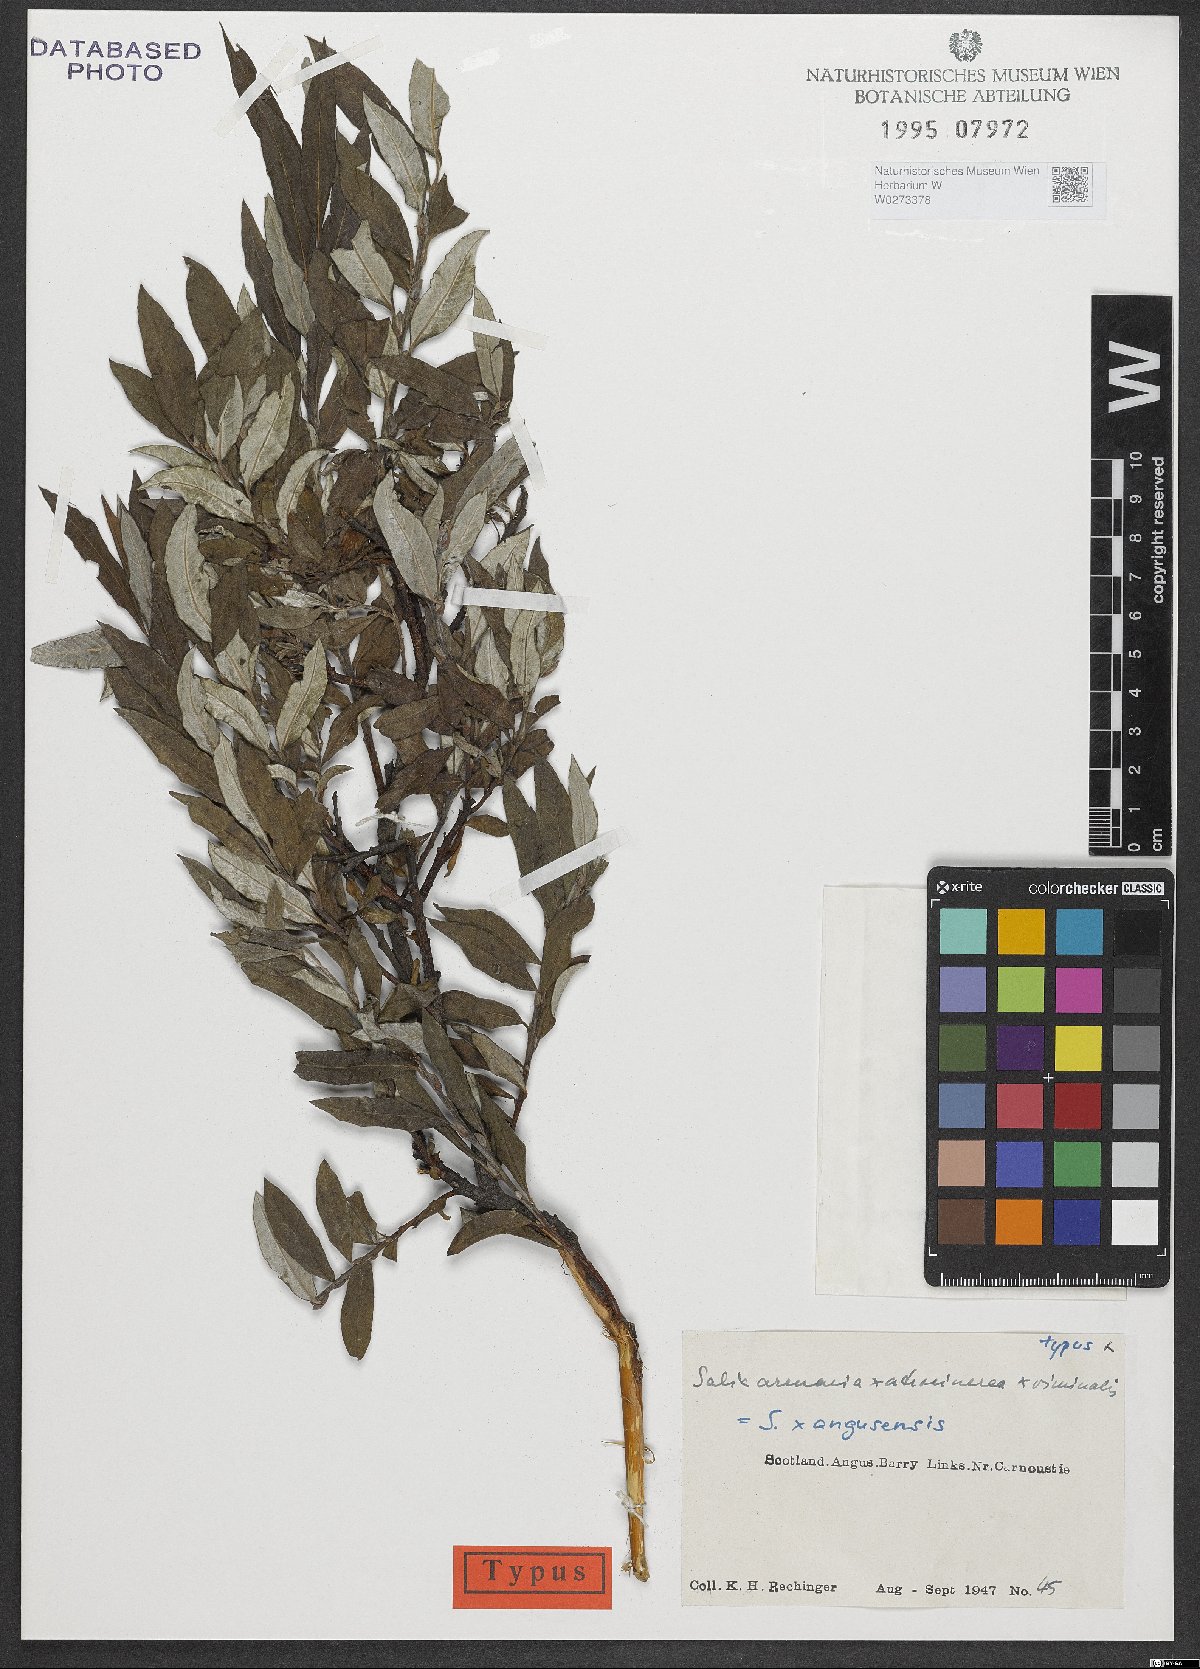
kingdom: Plantae
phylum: Tracheophyta
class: Magnoliopsida
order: Malpighiales
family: Salicaceae
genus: Salix
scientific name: Salix angusensis
